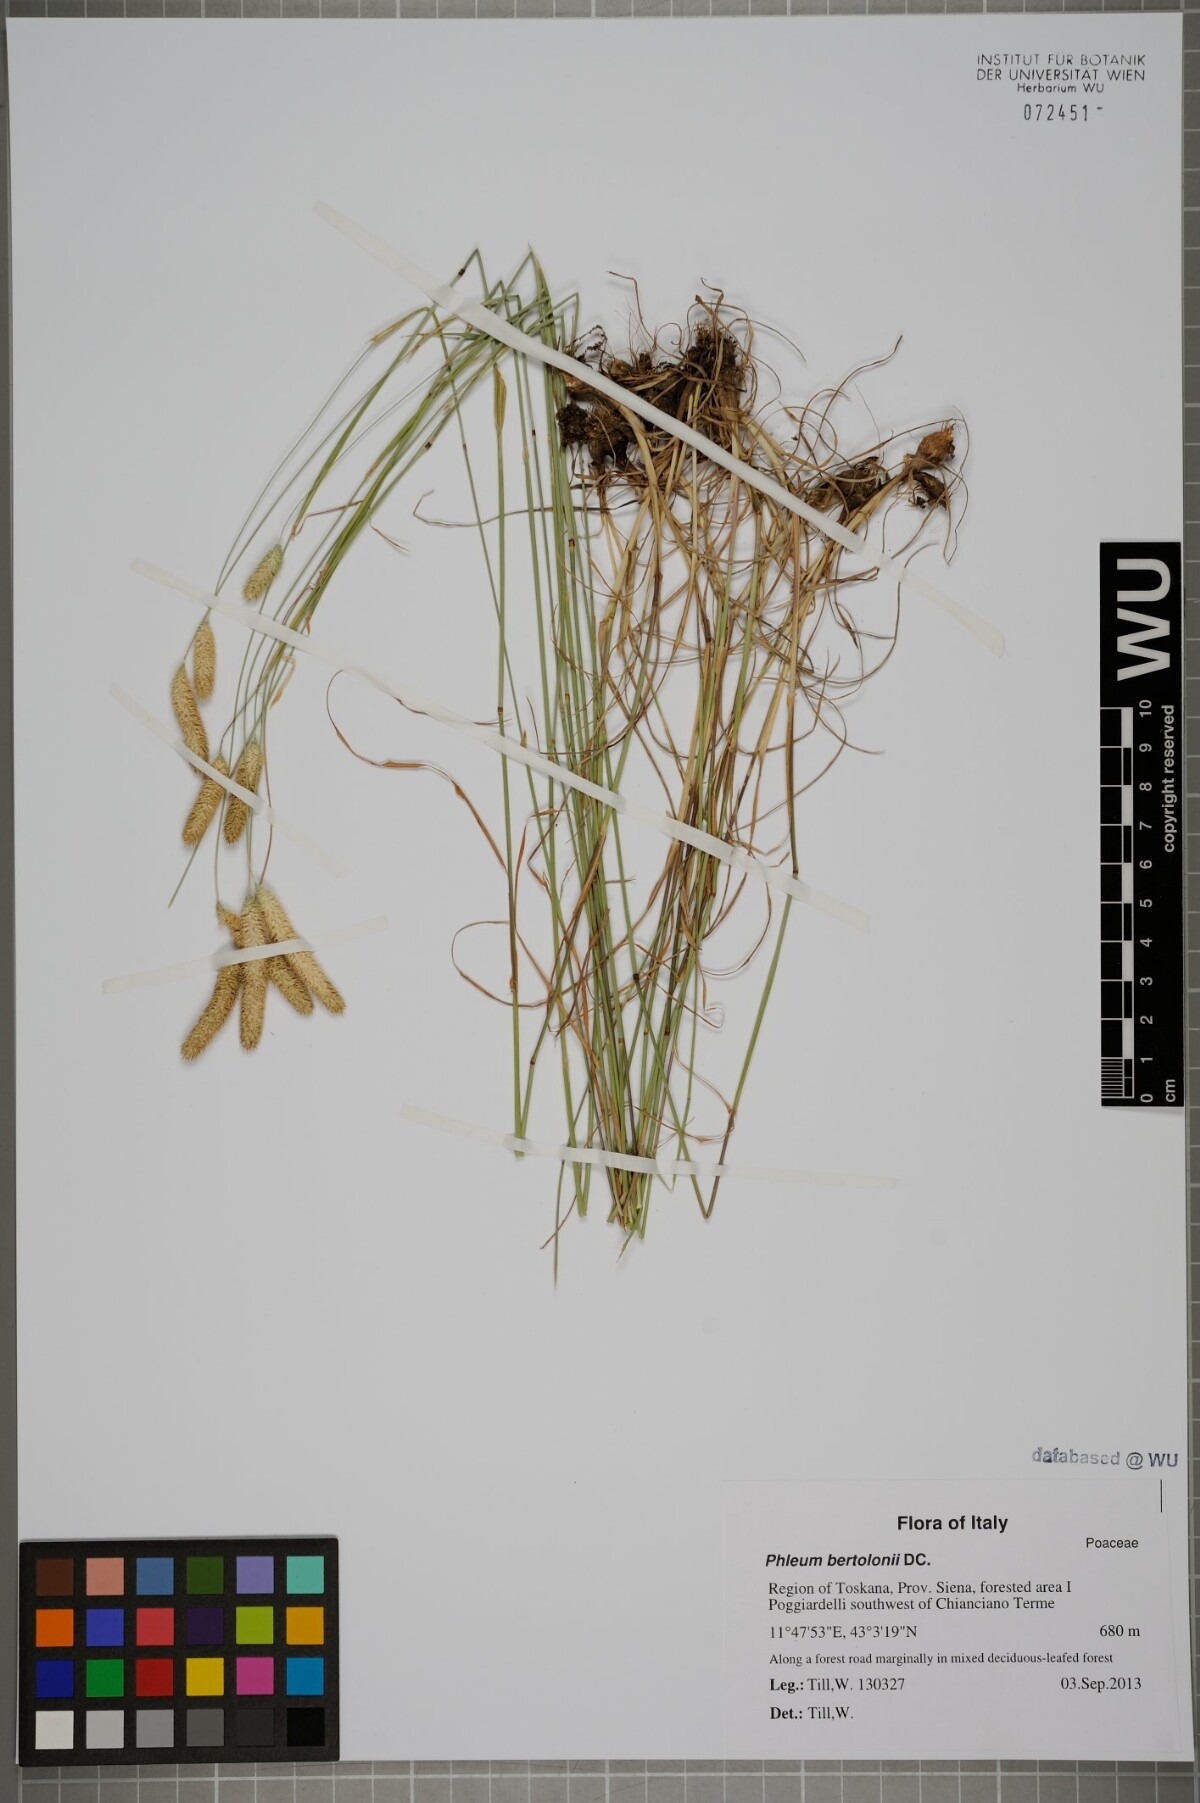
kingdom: Plantae
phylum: Tracheophyta
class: Liliopsida
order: Poales
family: Poaceae
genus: Phleum
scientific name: Phleum bertolonii
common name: Smaller cat's-tail
